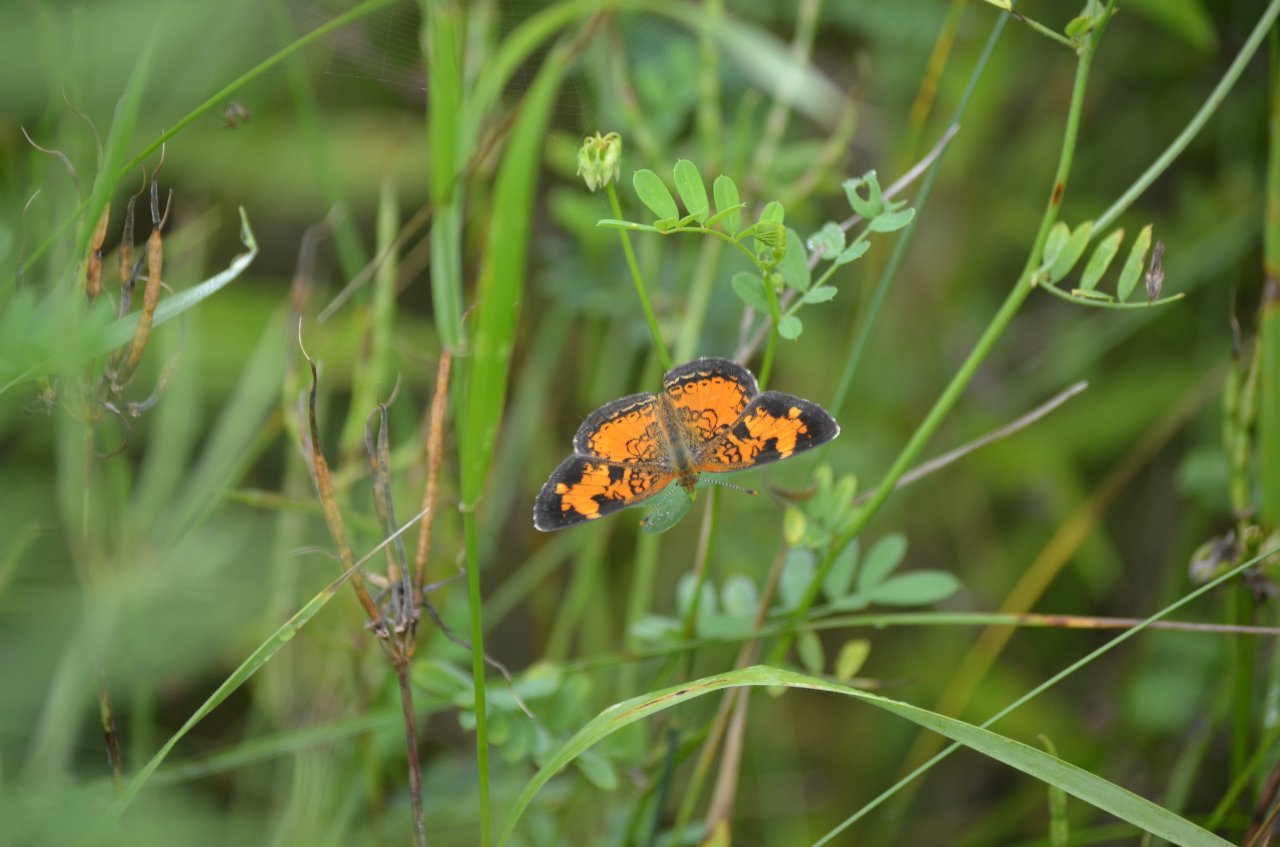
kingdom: Animalia
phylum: Arthropoda
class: Insecta
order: Lepidoptera
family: Nymphalidae
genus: Phyciodes
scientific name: Phyciodes tharos
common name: Northern Crescent
